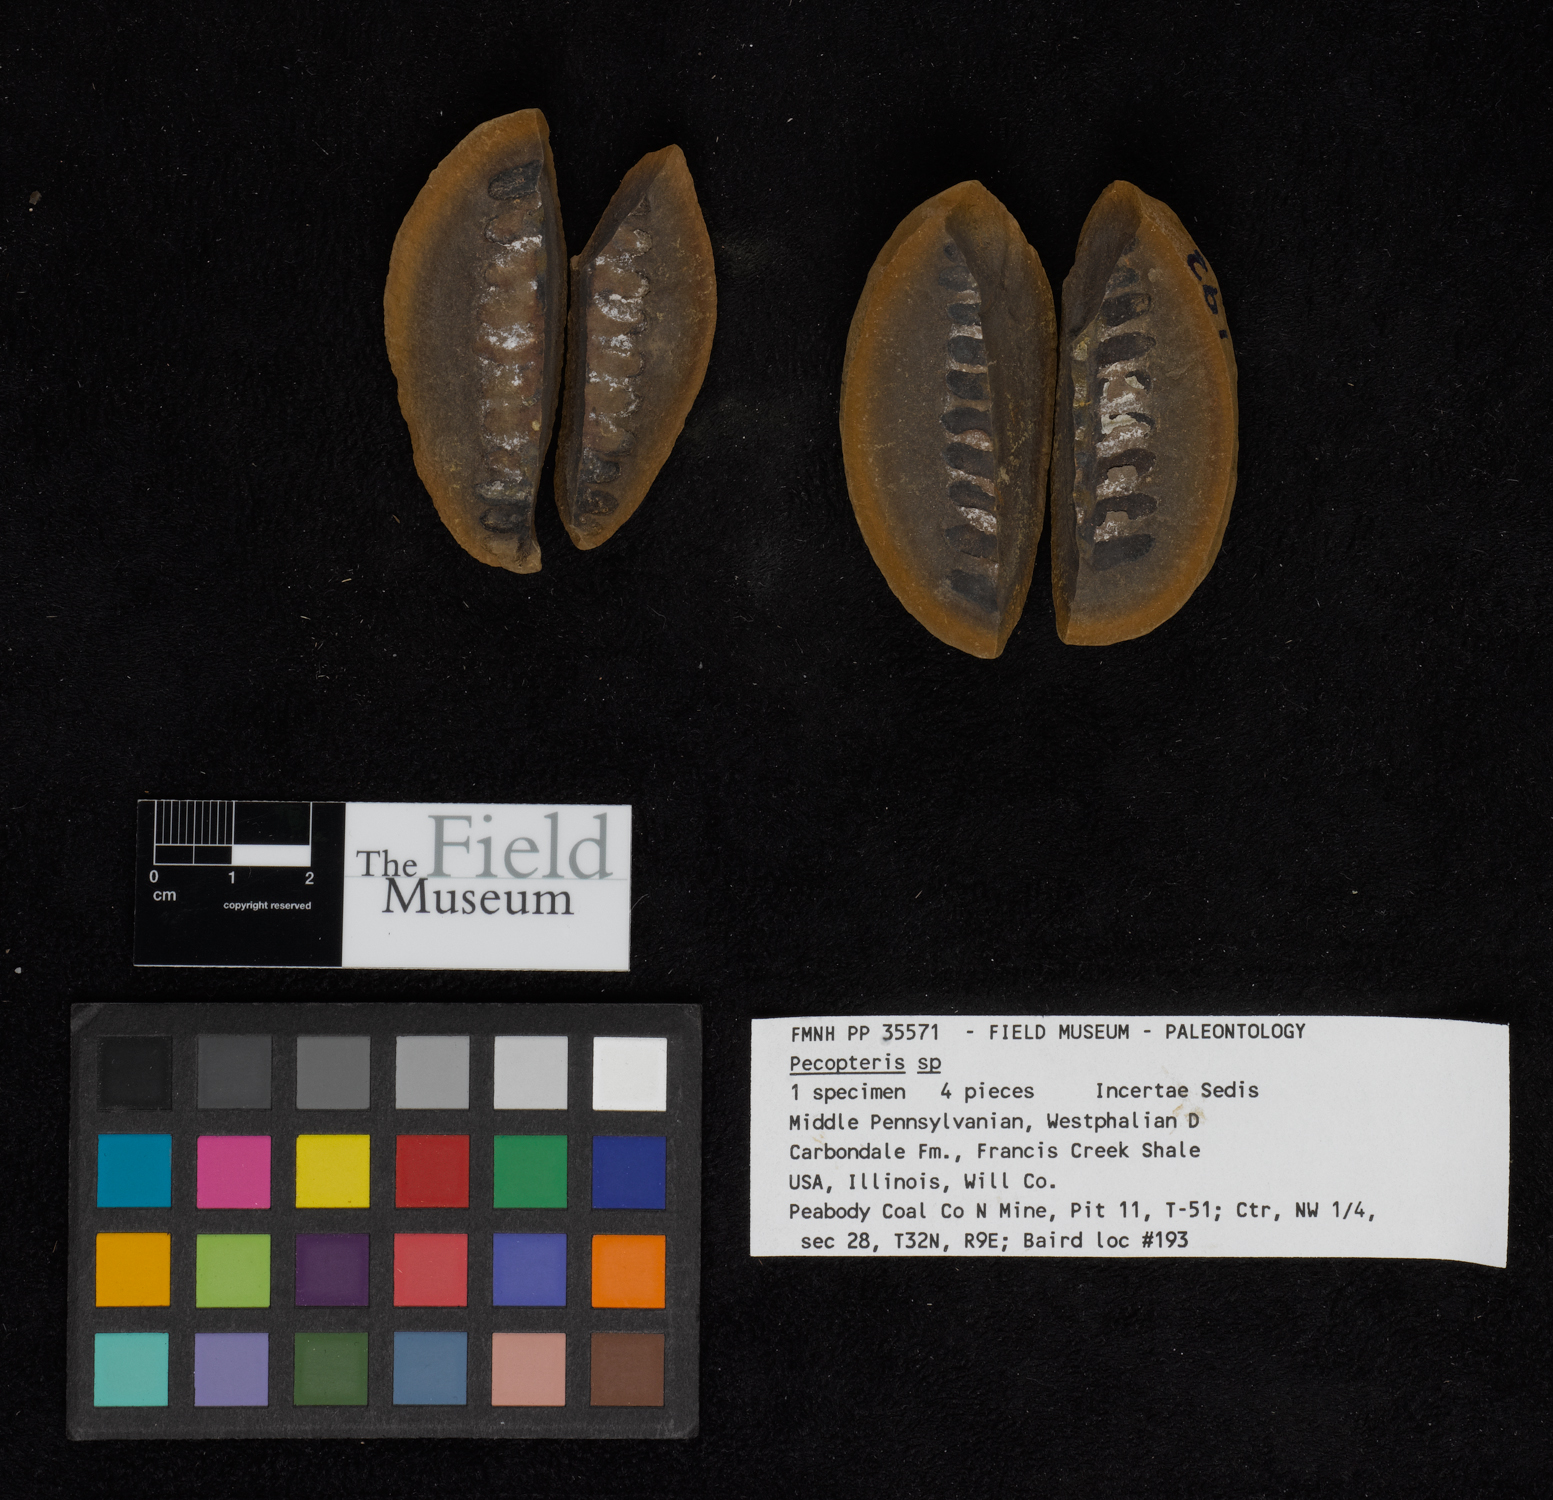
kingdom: Plantae
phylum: Tracheophyta
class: Polypodiopsida
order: Marattiales
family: Asterothecaceae
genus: Pecopteris
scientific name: Pecopteris
